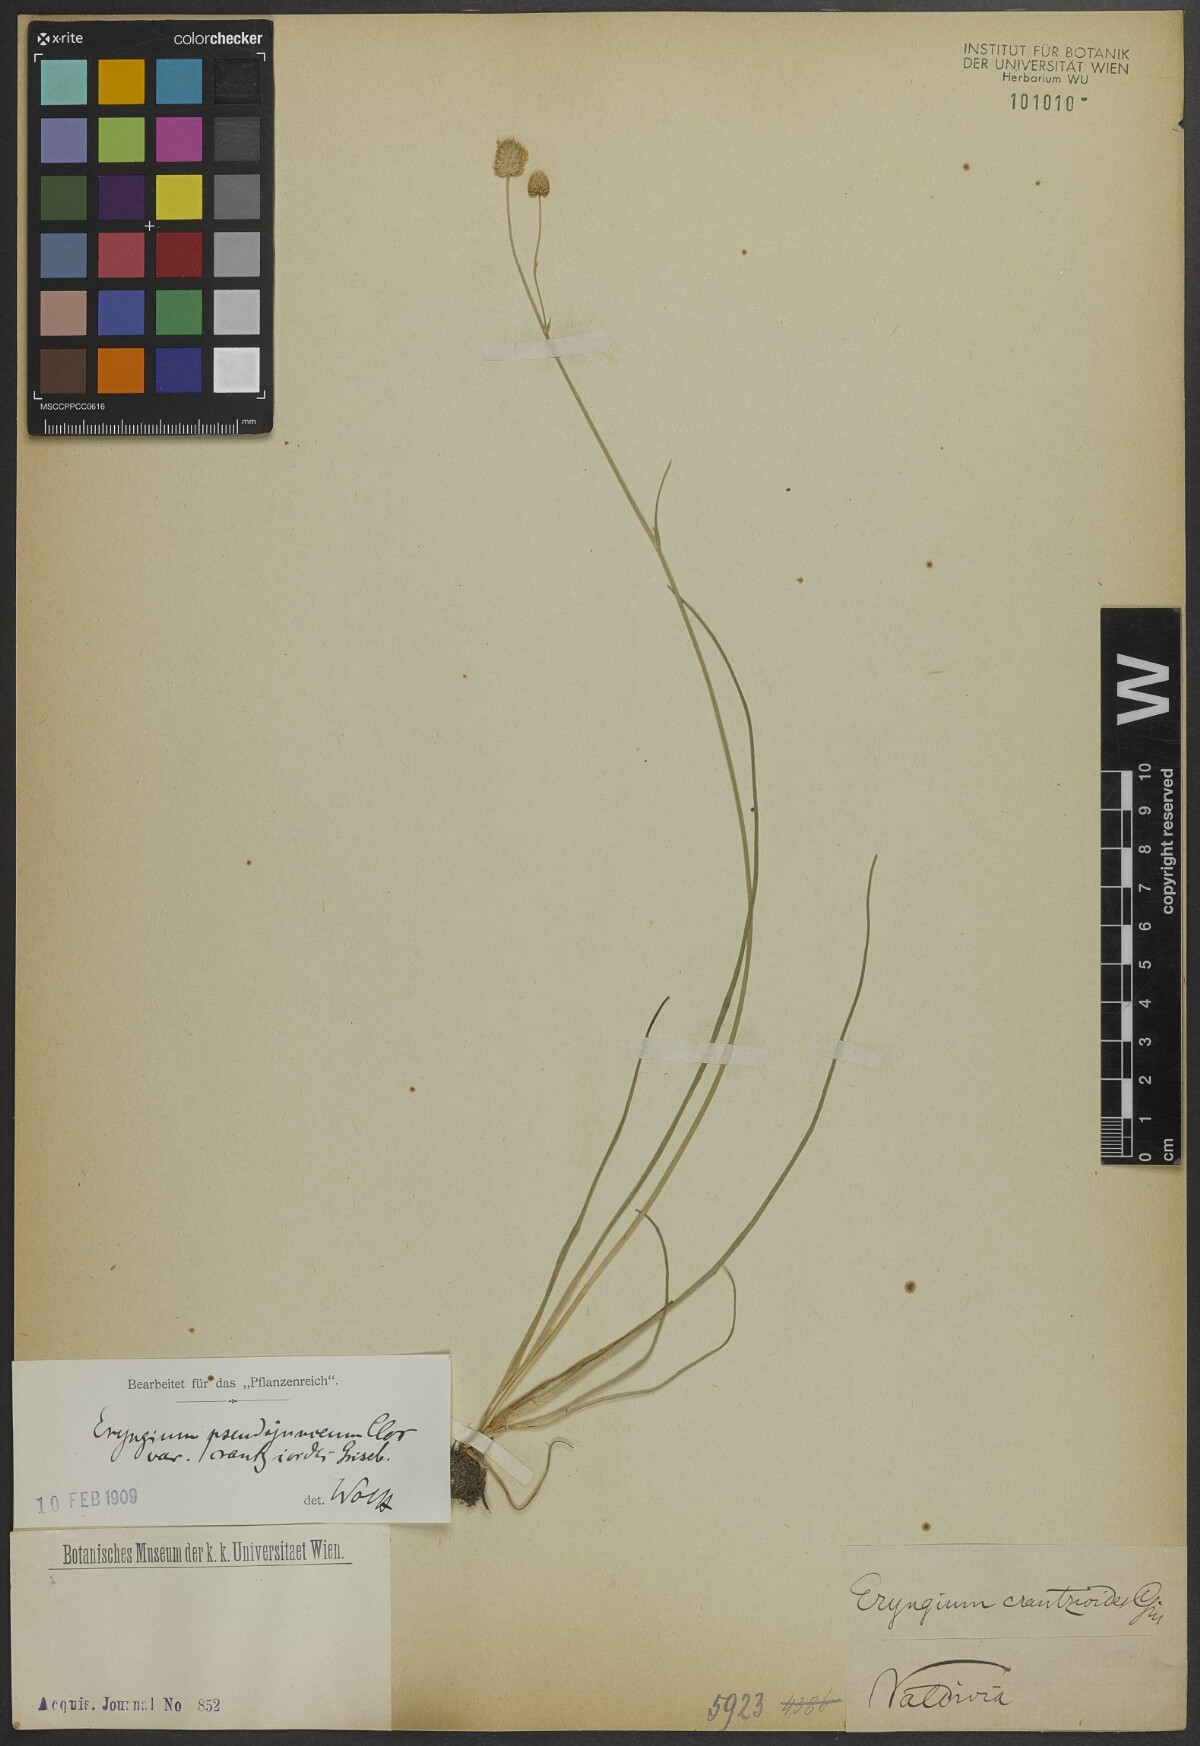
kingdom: Plantae
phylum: Tracheophyta
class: Magnoliopsida
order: Apiales
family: Apiaceae
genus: Eryngium
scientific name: Eryngium pseudojunceum
